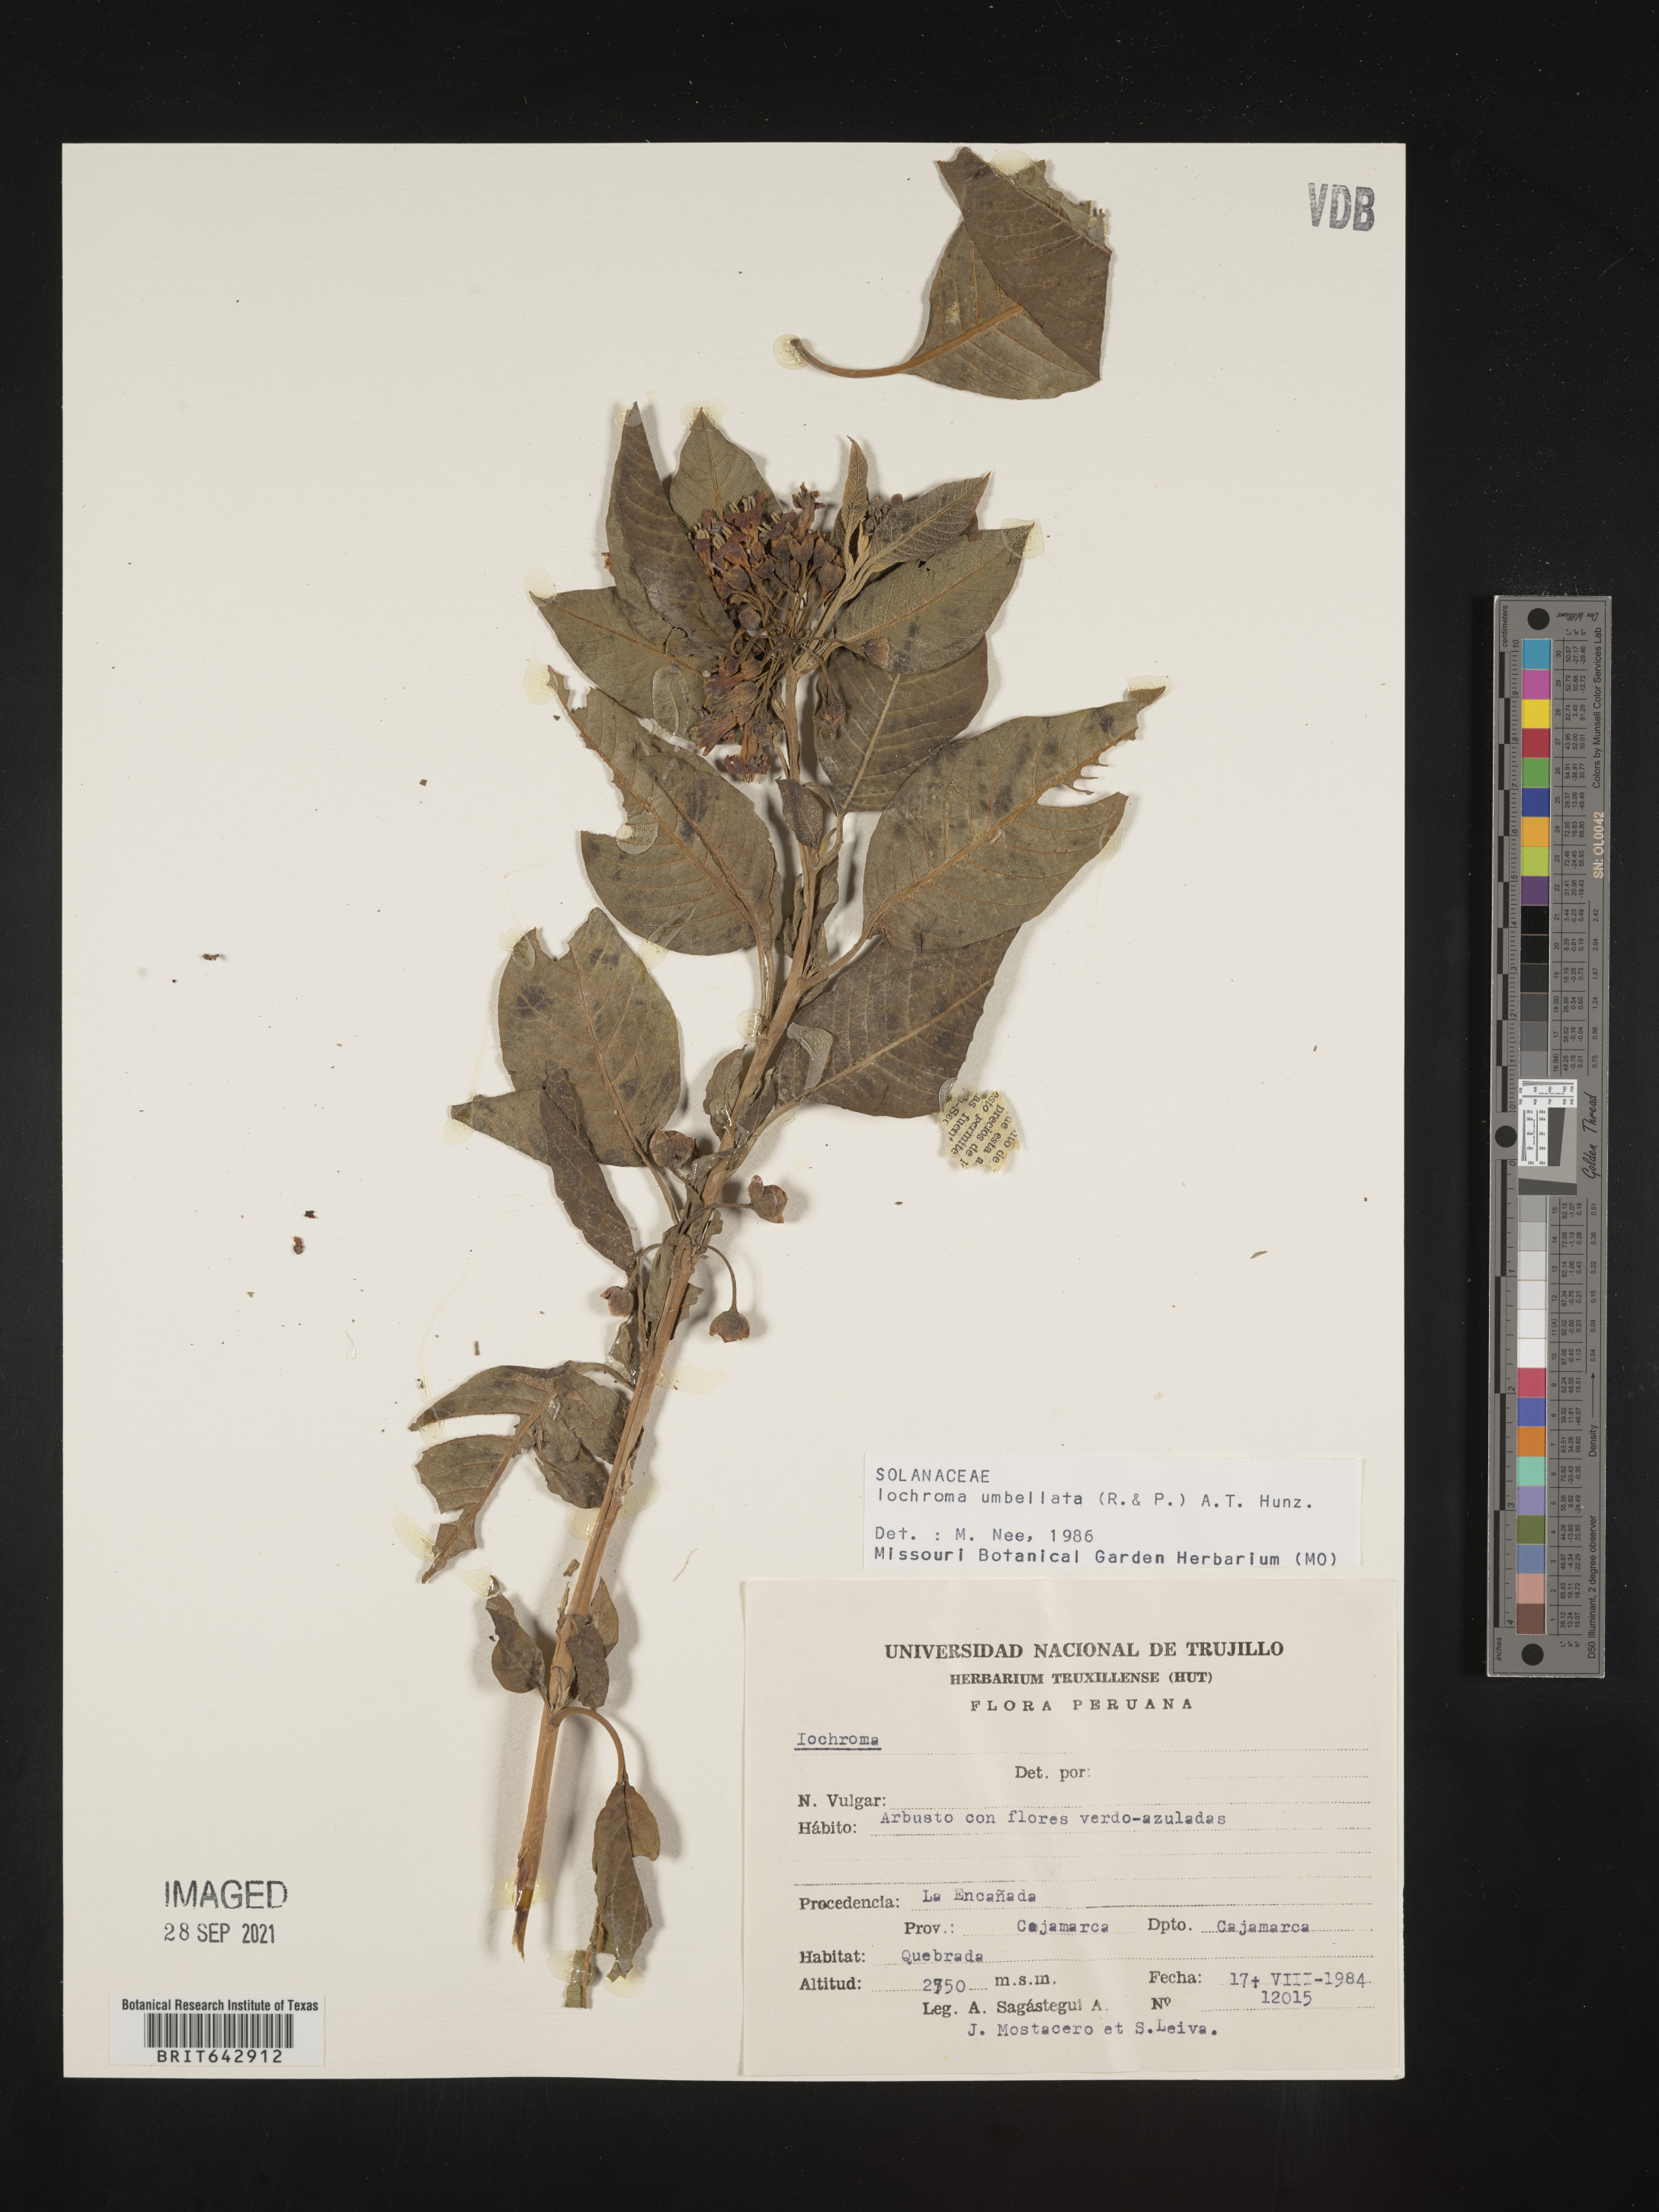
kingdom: Plantae
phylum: Tracheophyta
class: Magnoliopsida
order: Solanales
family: Solanaceae
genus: Iochroma
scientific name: Iochroma
